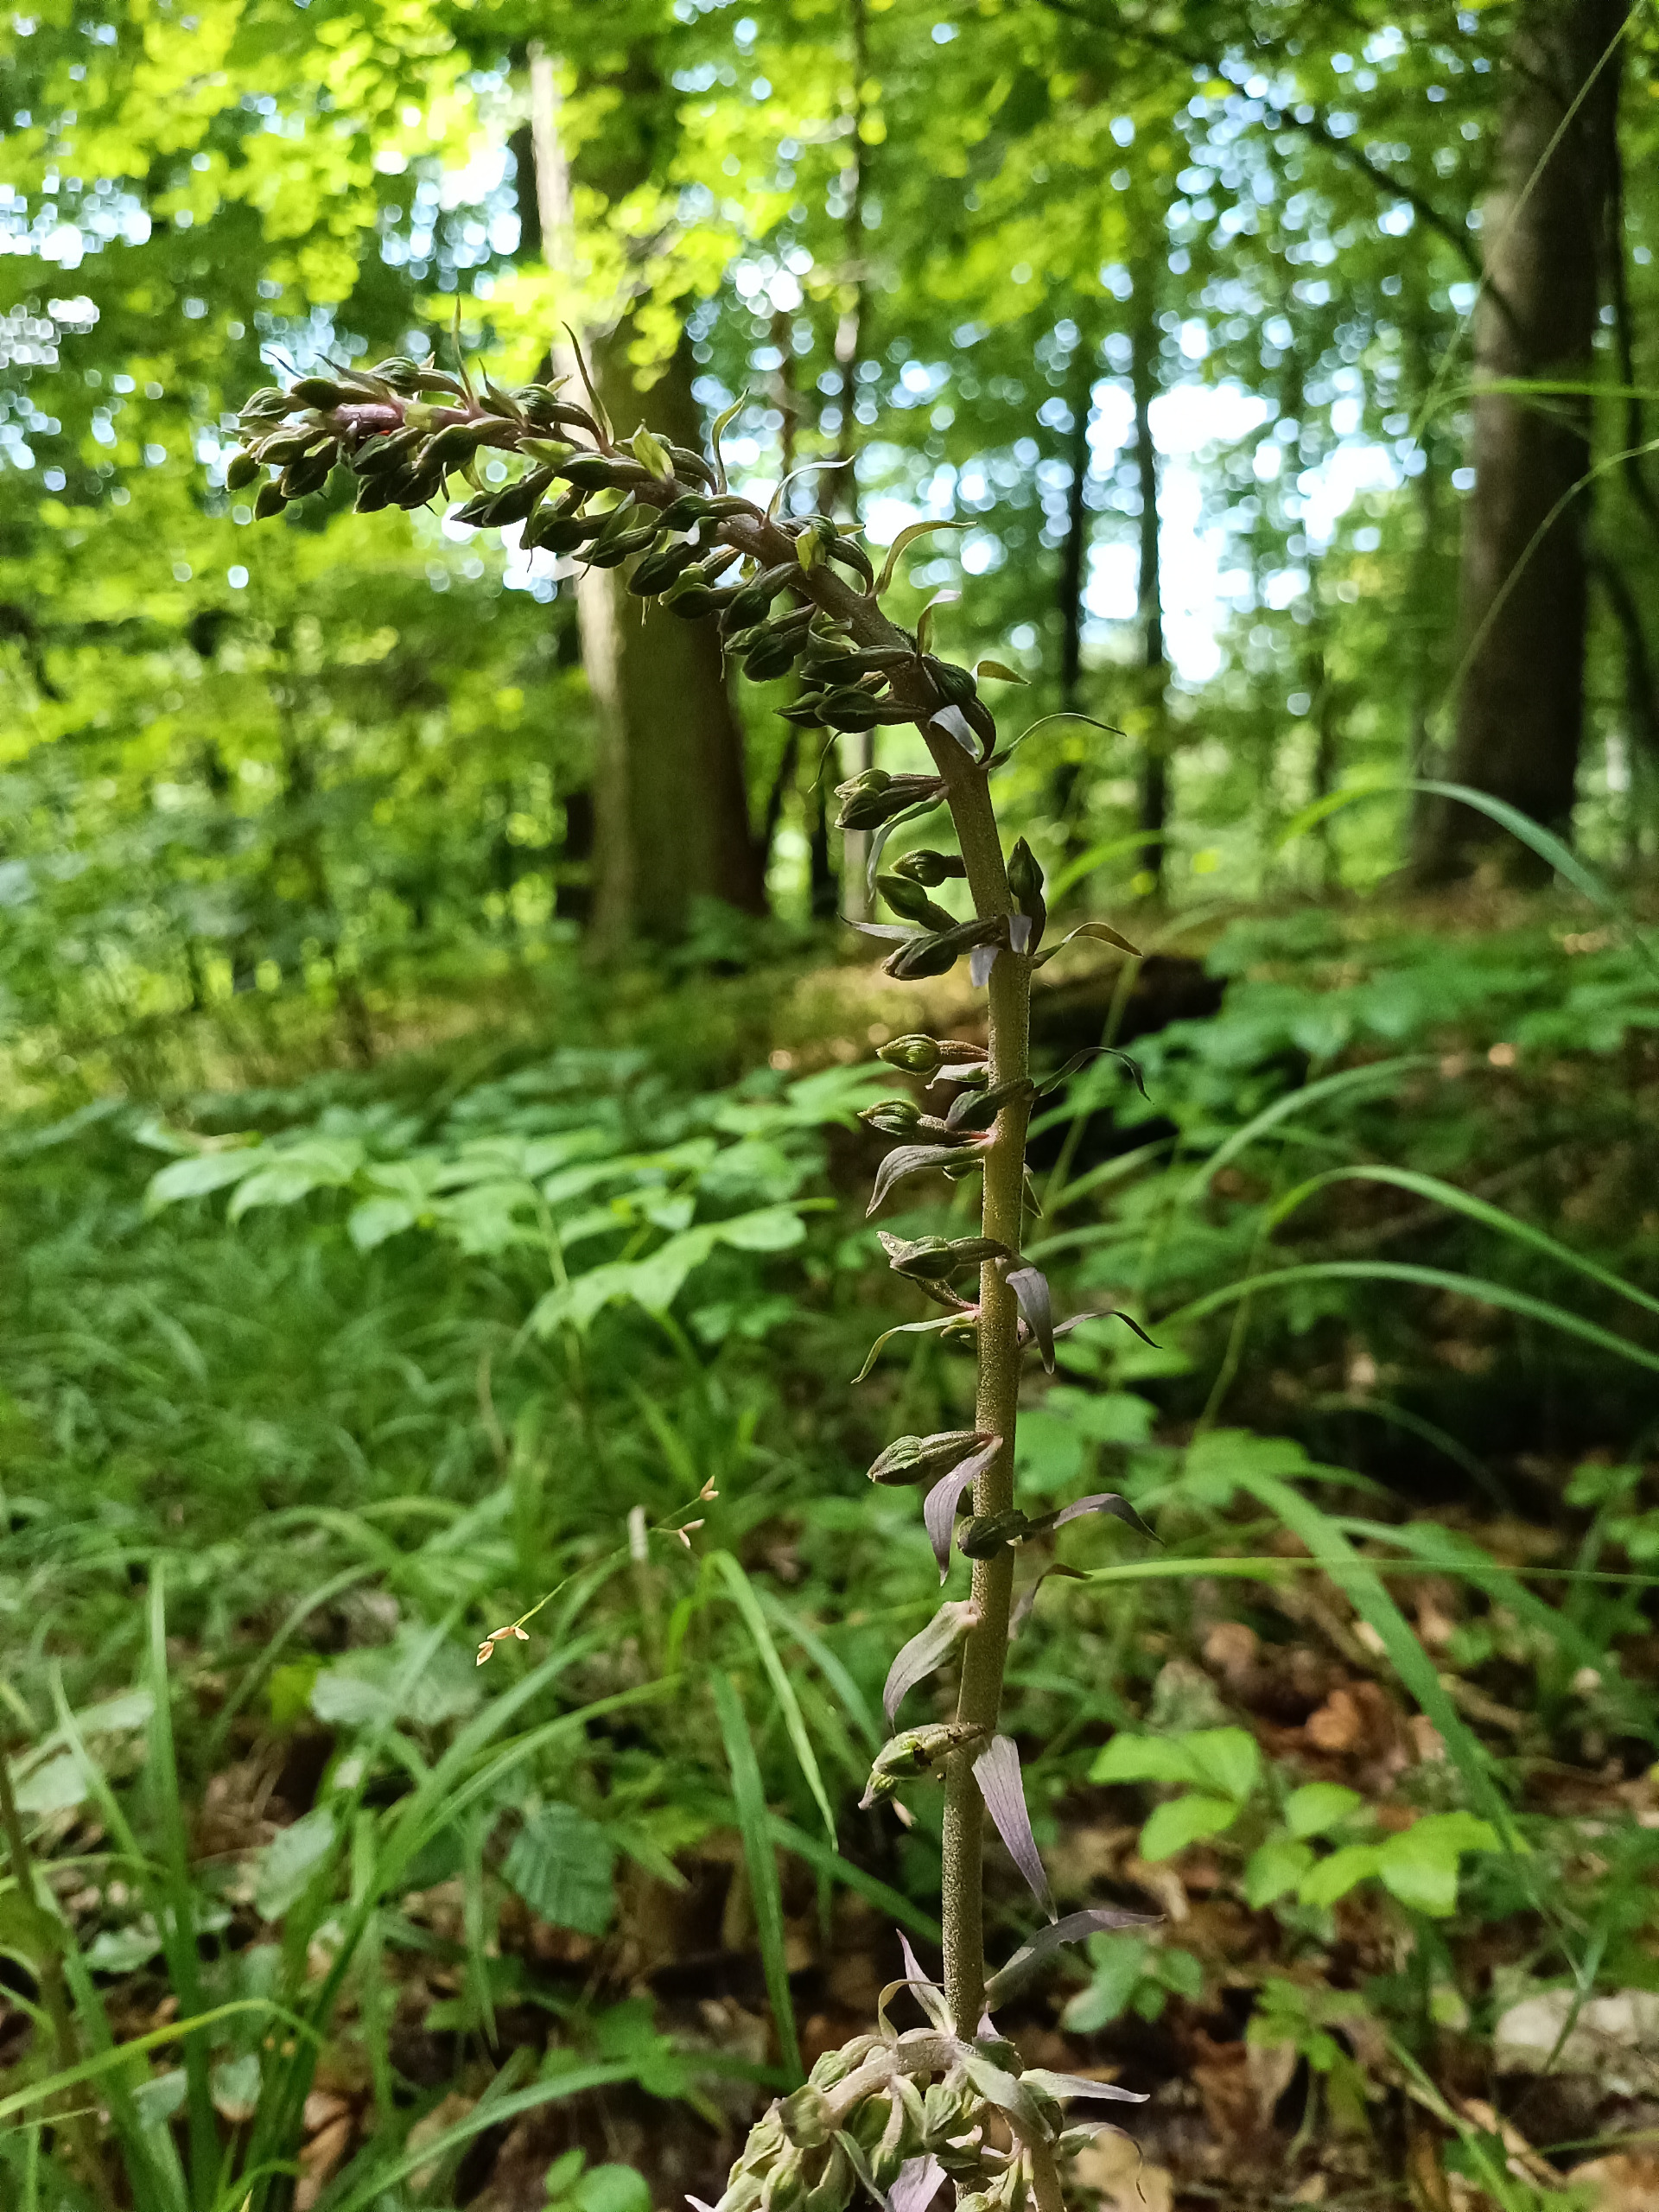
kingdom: Plantae
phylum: Tracheophyta
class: Liliopsida
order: Asparagales
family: Orchidaceae
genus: Epipactis
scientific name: Epipactis purpurata
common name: Tætblomstret hullæbe
